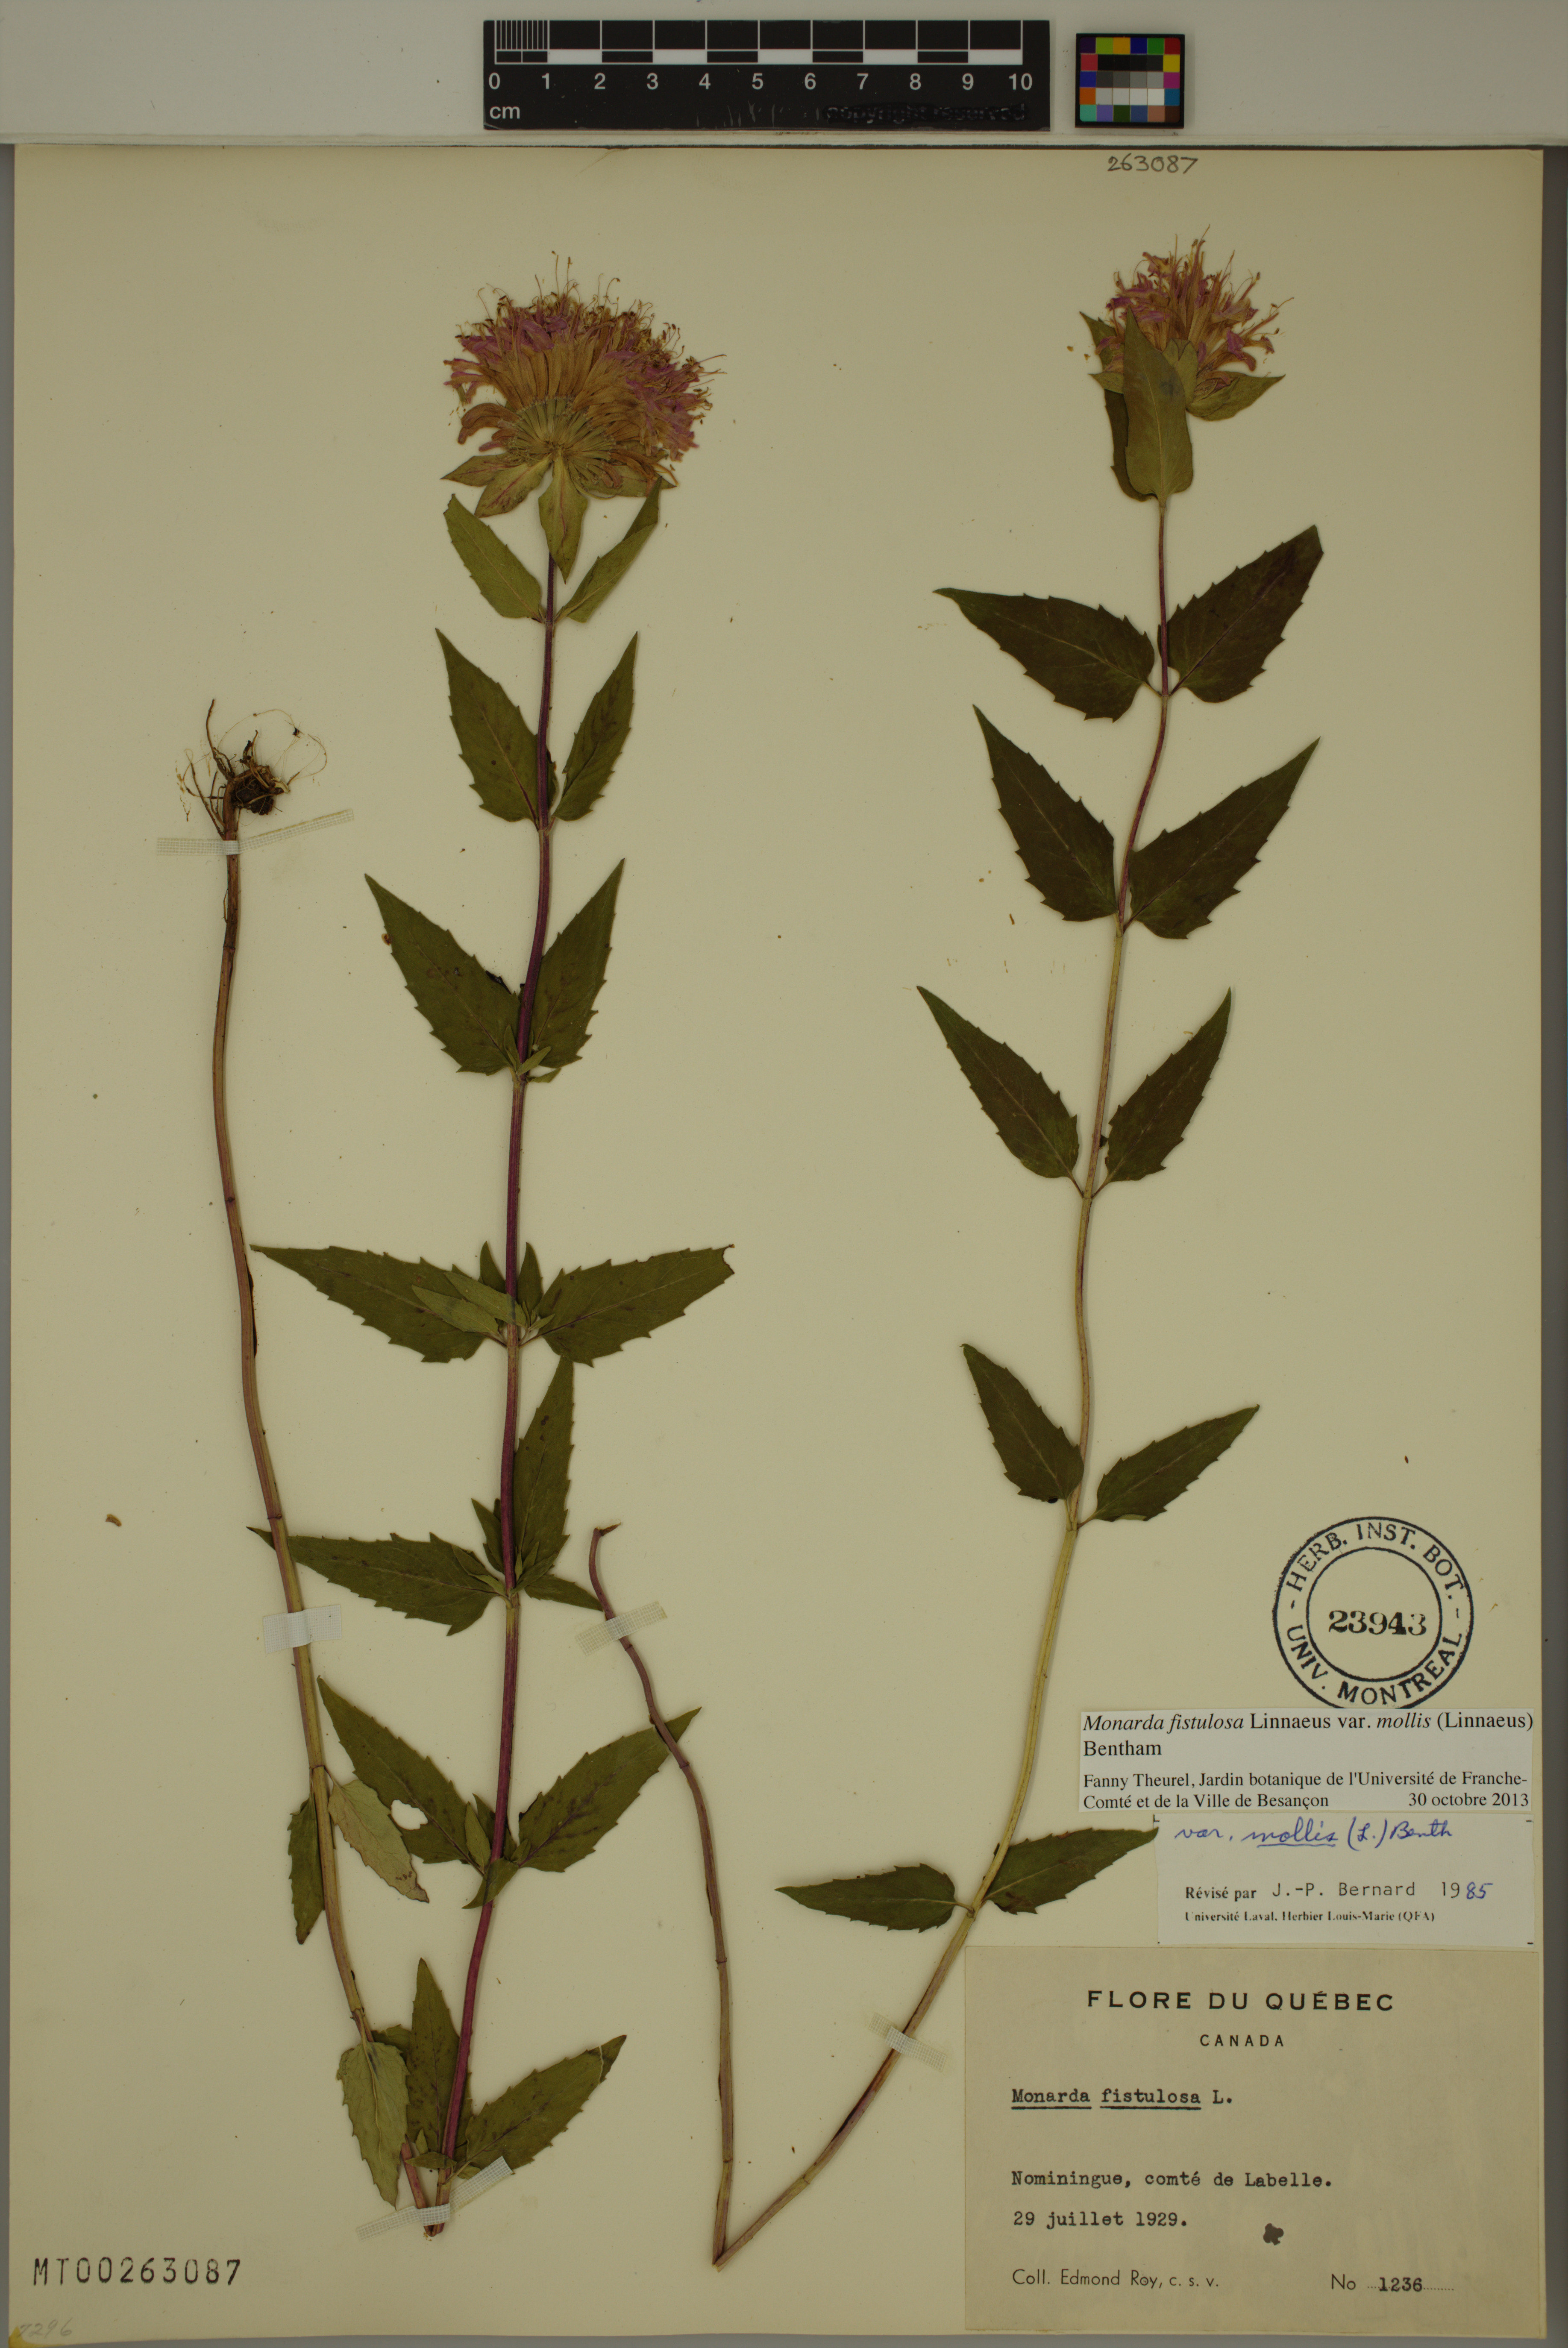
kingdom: Plantae
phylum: Tracheophyta
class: Magnoliopsida
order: Lamiales
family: Lamiaceae
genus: Monarda
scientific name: Monarda fistulosa
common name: Purple beebalm
